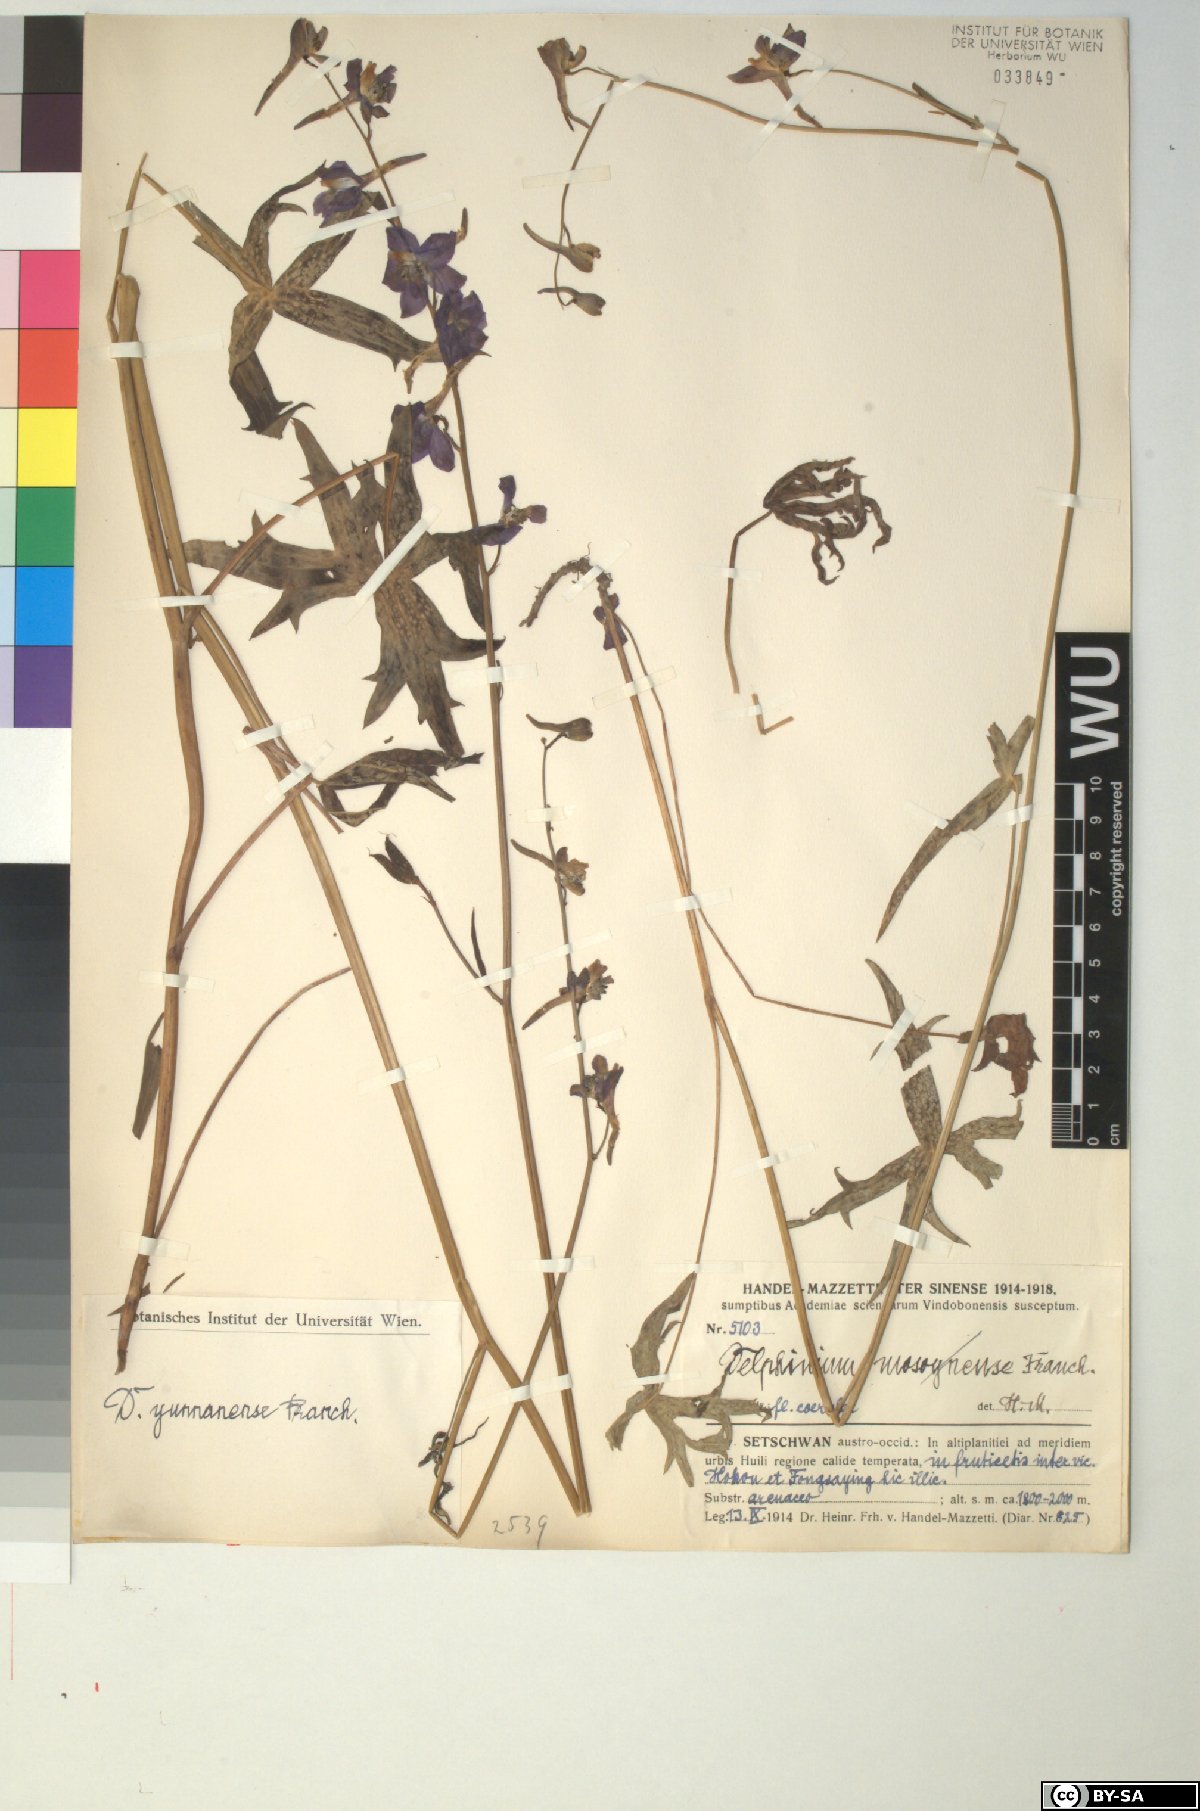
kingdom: Plantae
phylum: Tracheophyta
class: Magnoliopsida
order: Ranunculales
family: Ranunculaceae
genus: Delphinium
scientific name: Delphinium yunnanense
